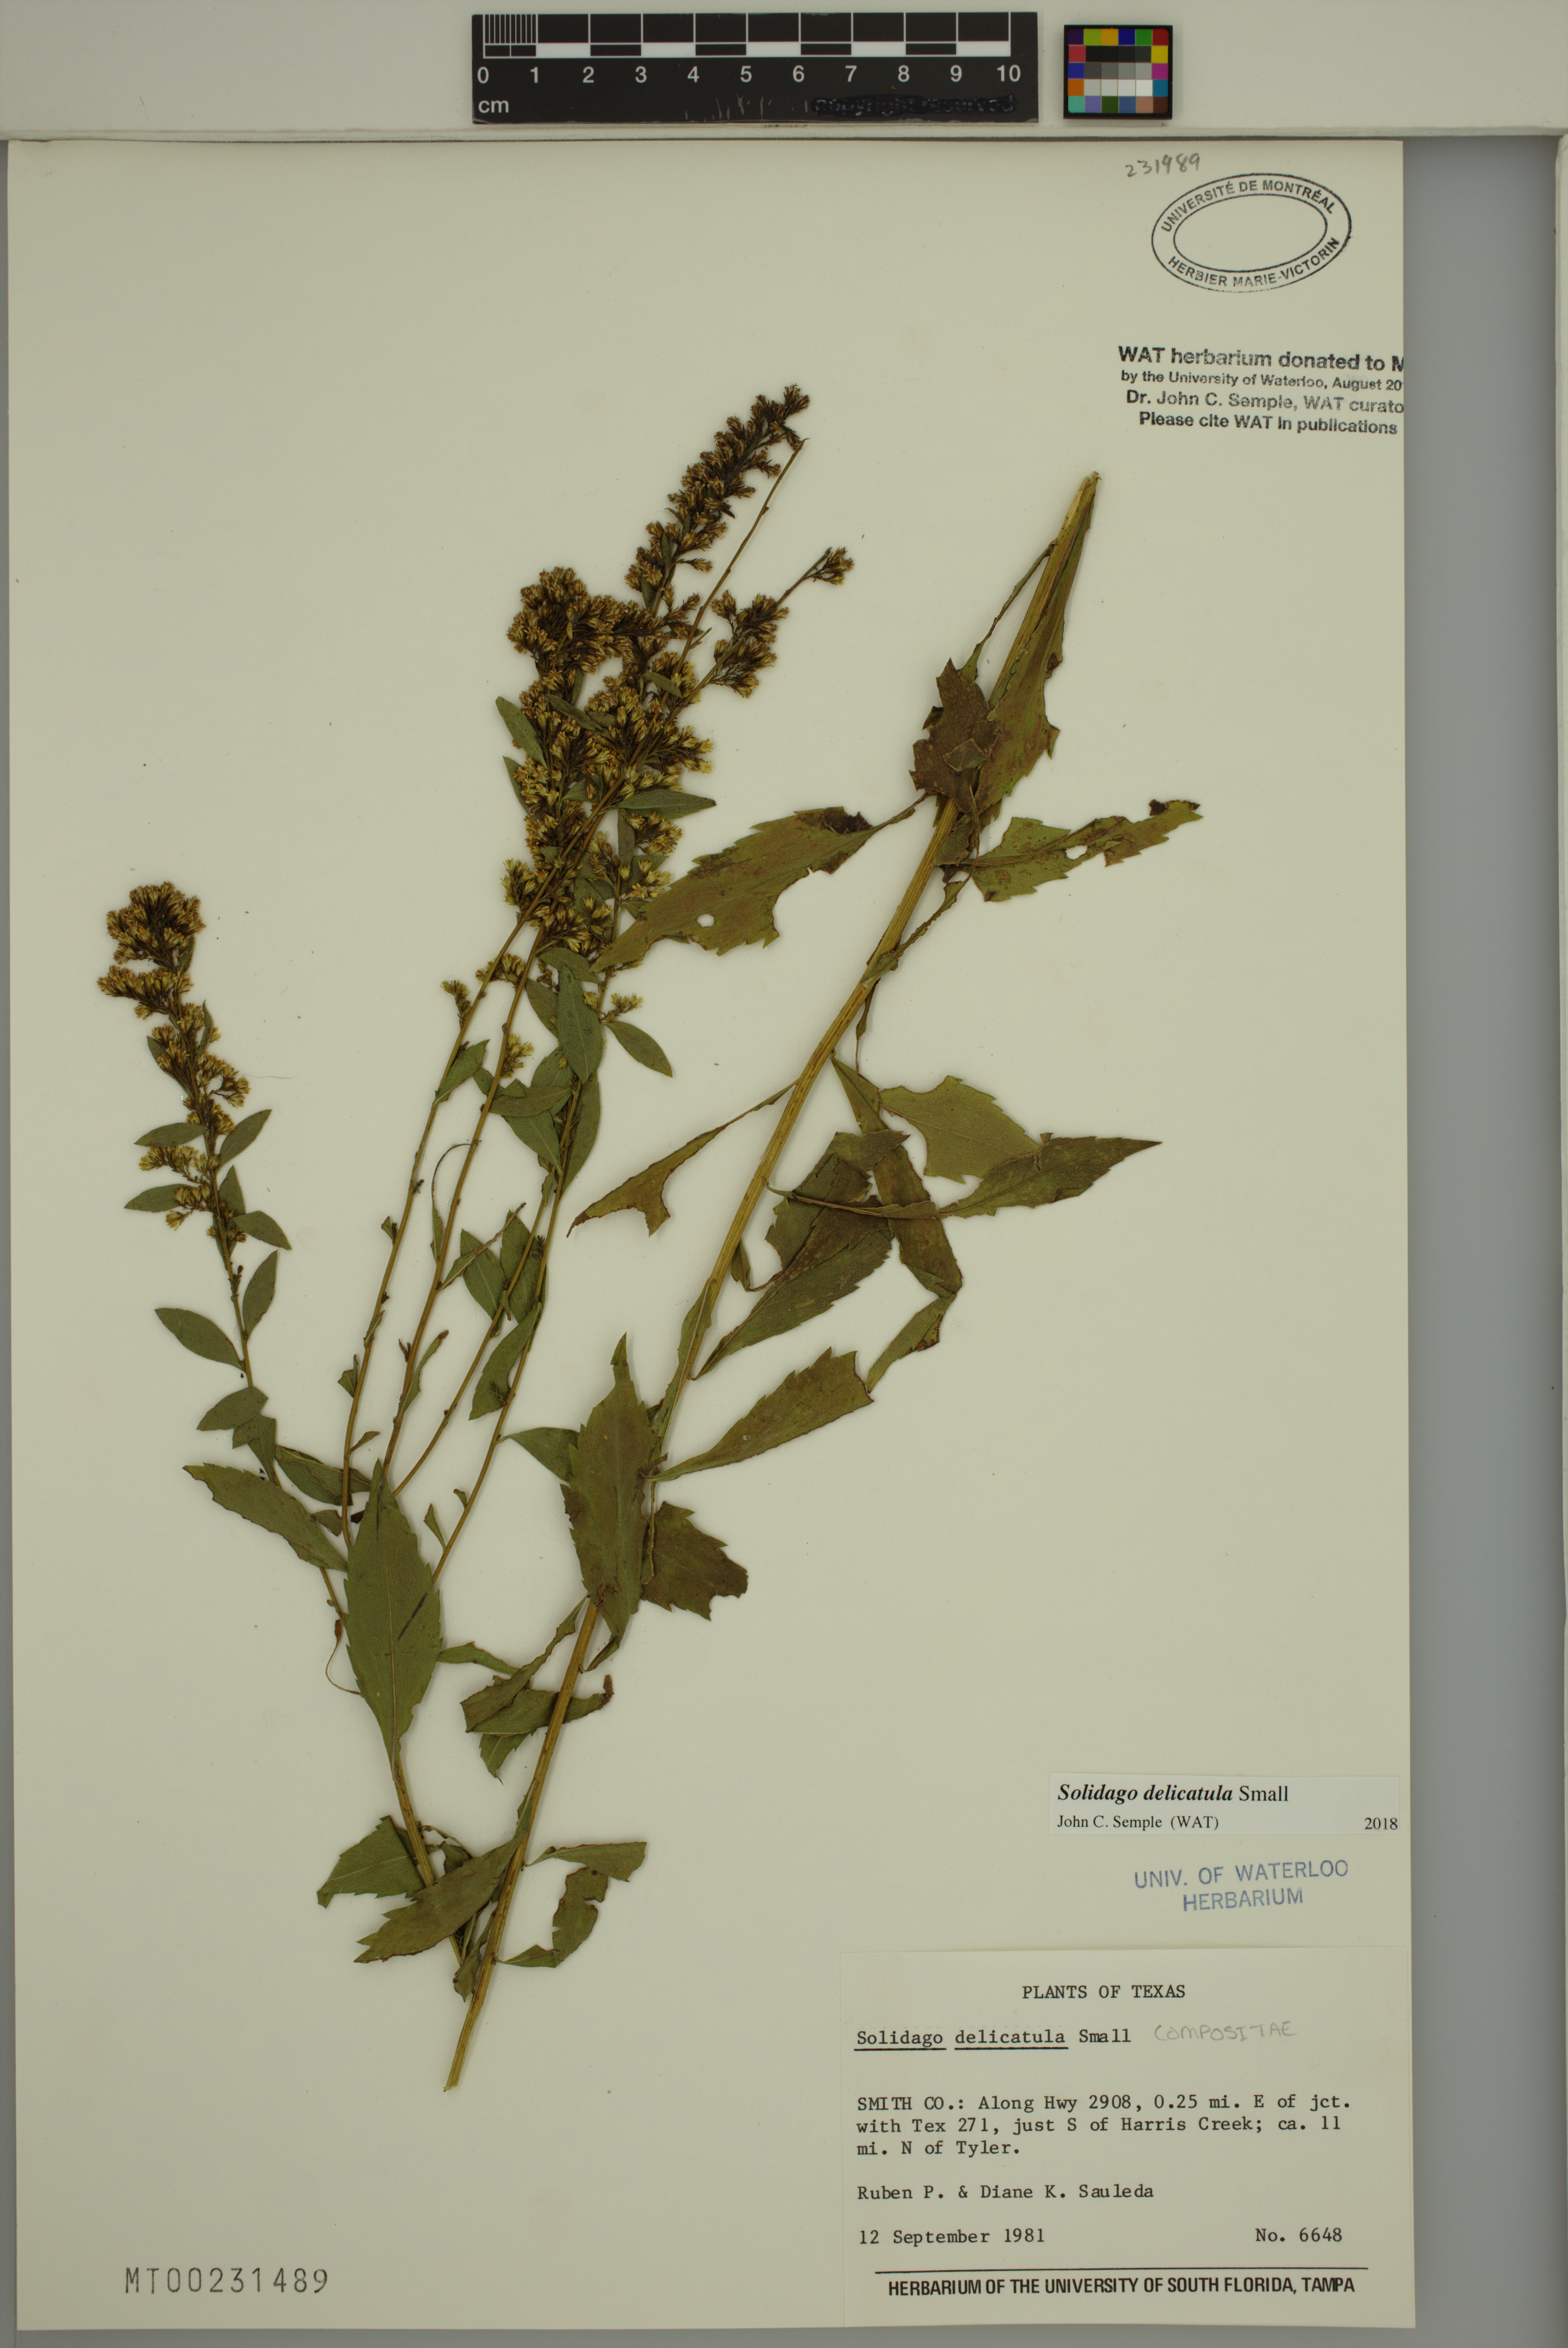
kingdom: Plantae
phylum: Tracheophyta
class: Magnoliopsida
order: Asterales
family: Asteraceae
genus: Solidago
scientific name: Solidago delicatula
